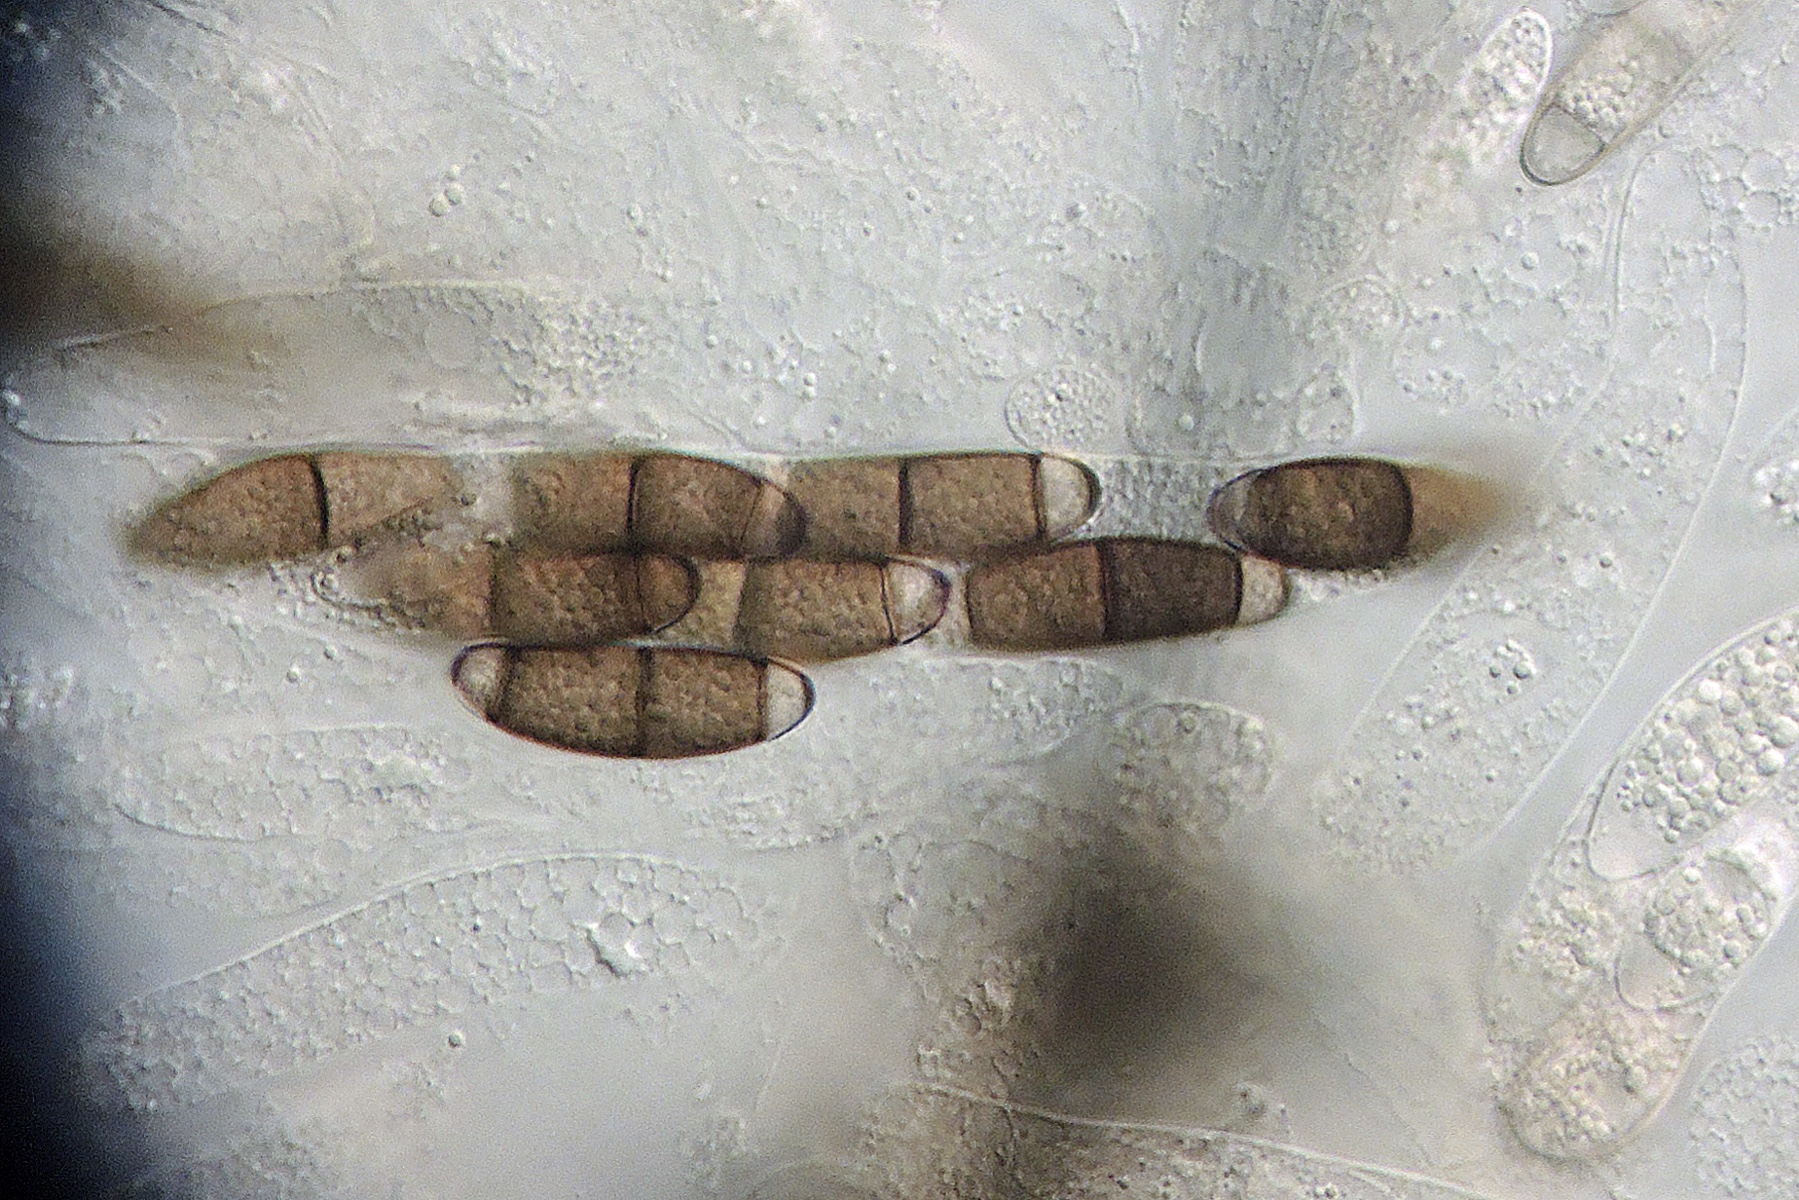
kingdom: Fungi
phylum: Ascomycota
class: Sordariomycetes
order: Coronophorales
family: Chaetosphaerellaceae
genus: Chaetosphaerella
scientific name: Chaetosphaerella phaeostroma
